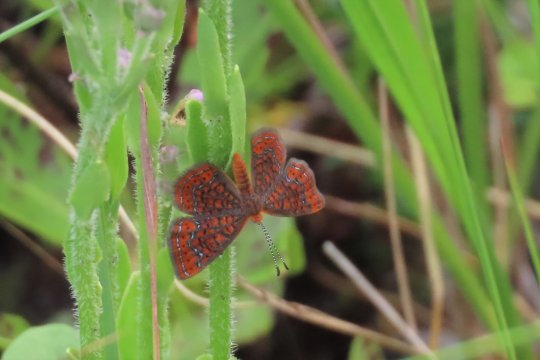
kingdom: Animalia
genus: Calephelis
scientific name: Calephelis virginiensis
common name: Little Metalmark
